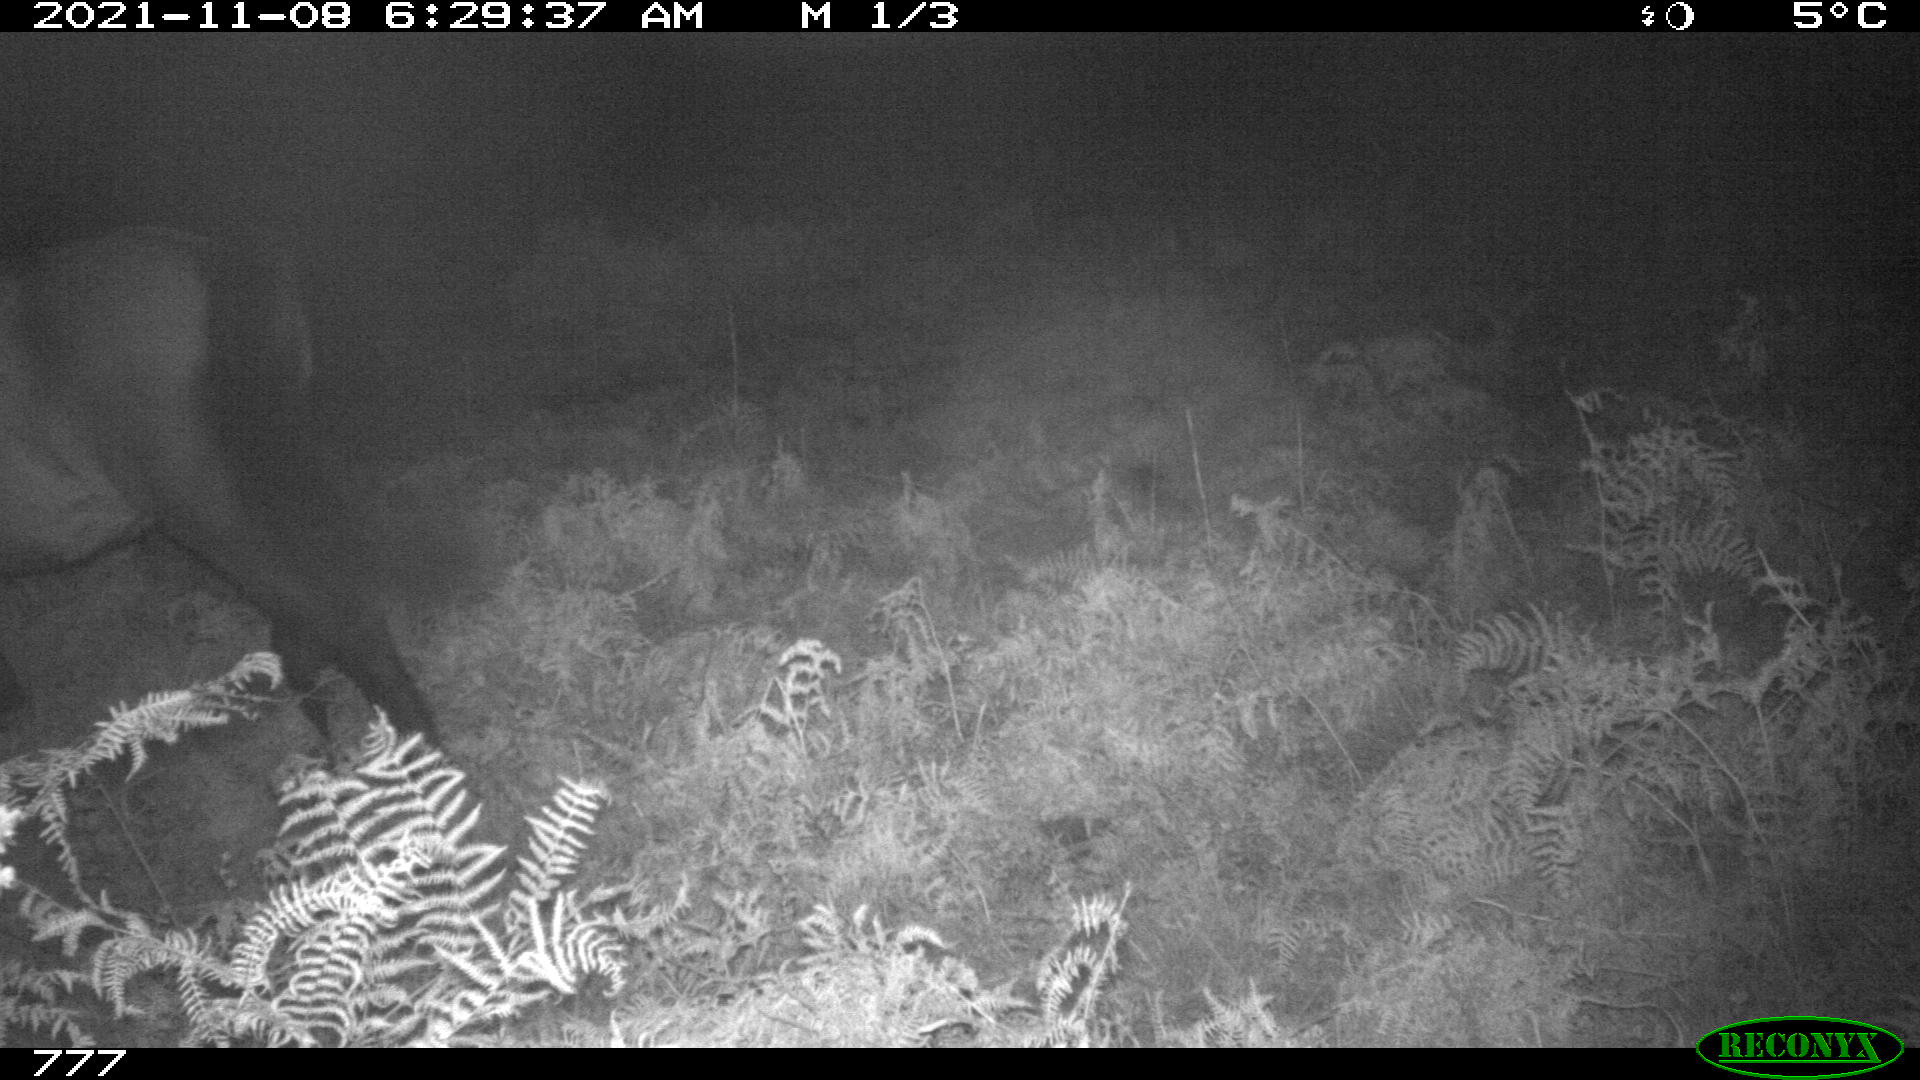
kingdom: Animalia
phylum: Chordata
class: Mammalia
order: Perissodactyla
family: Equidae
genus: Equus
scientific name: Equus caballus
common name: Horse
